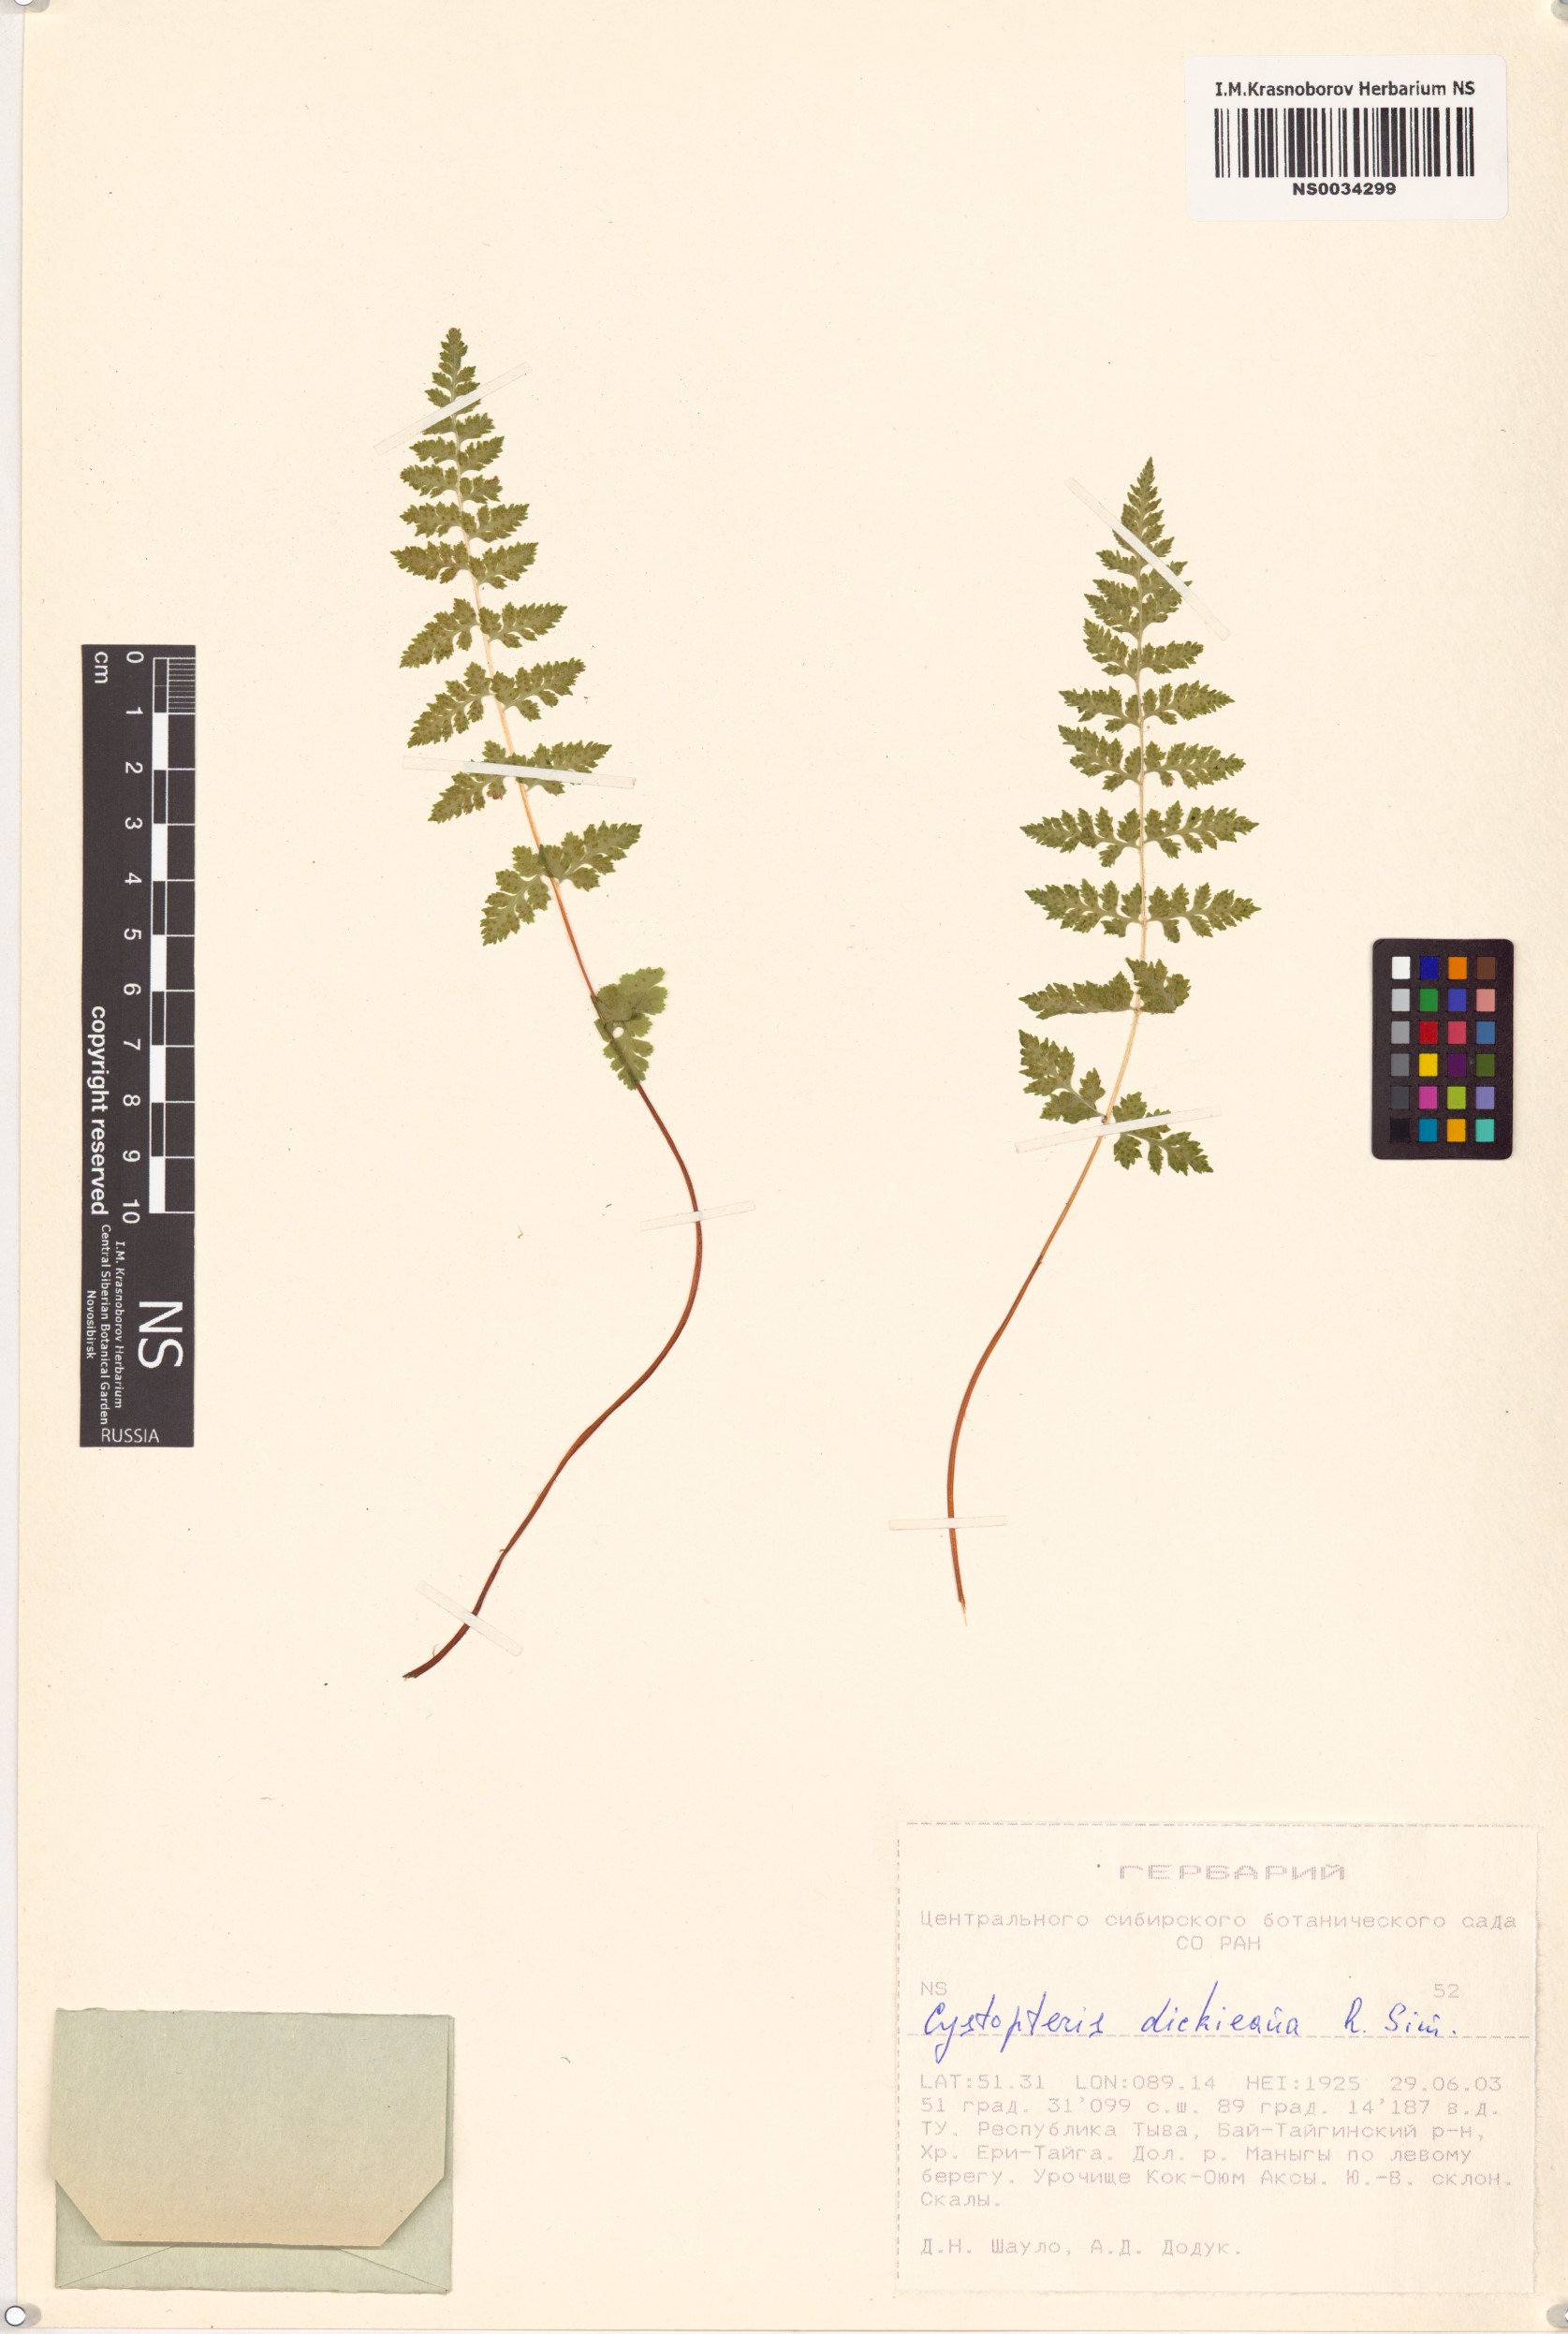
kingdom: Plantae
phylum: Tracheophyta
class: Polypodiopsida
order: Polypodiales
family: Cystopteridaceae
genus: Cystopteris
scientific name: Cystopteris dickieana
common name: Dickie's bladder-fern
